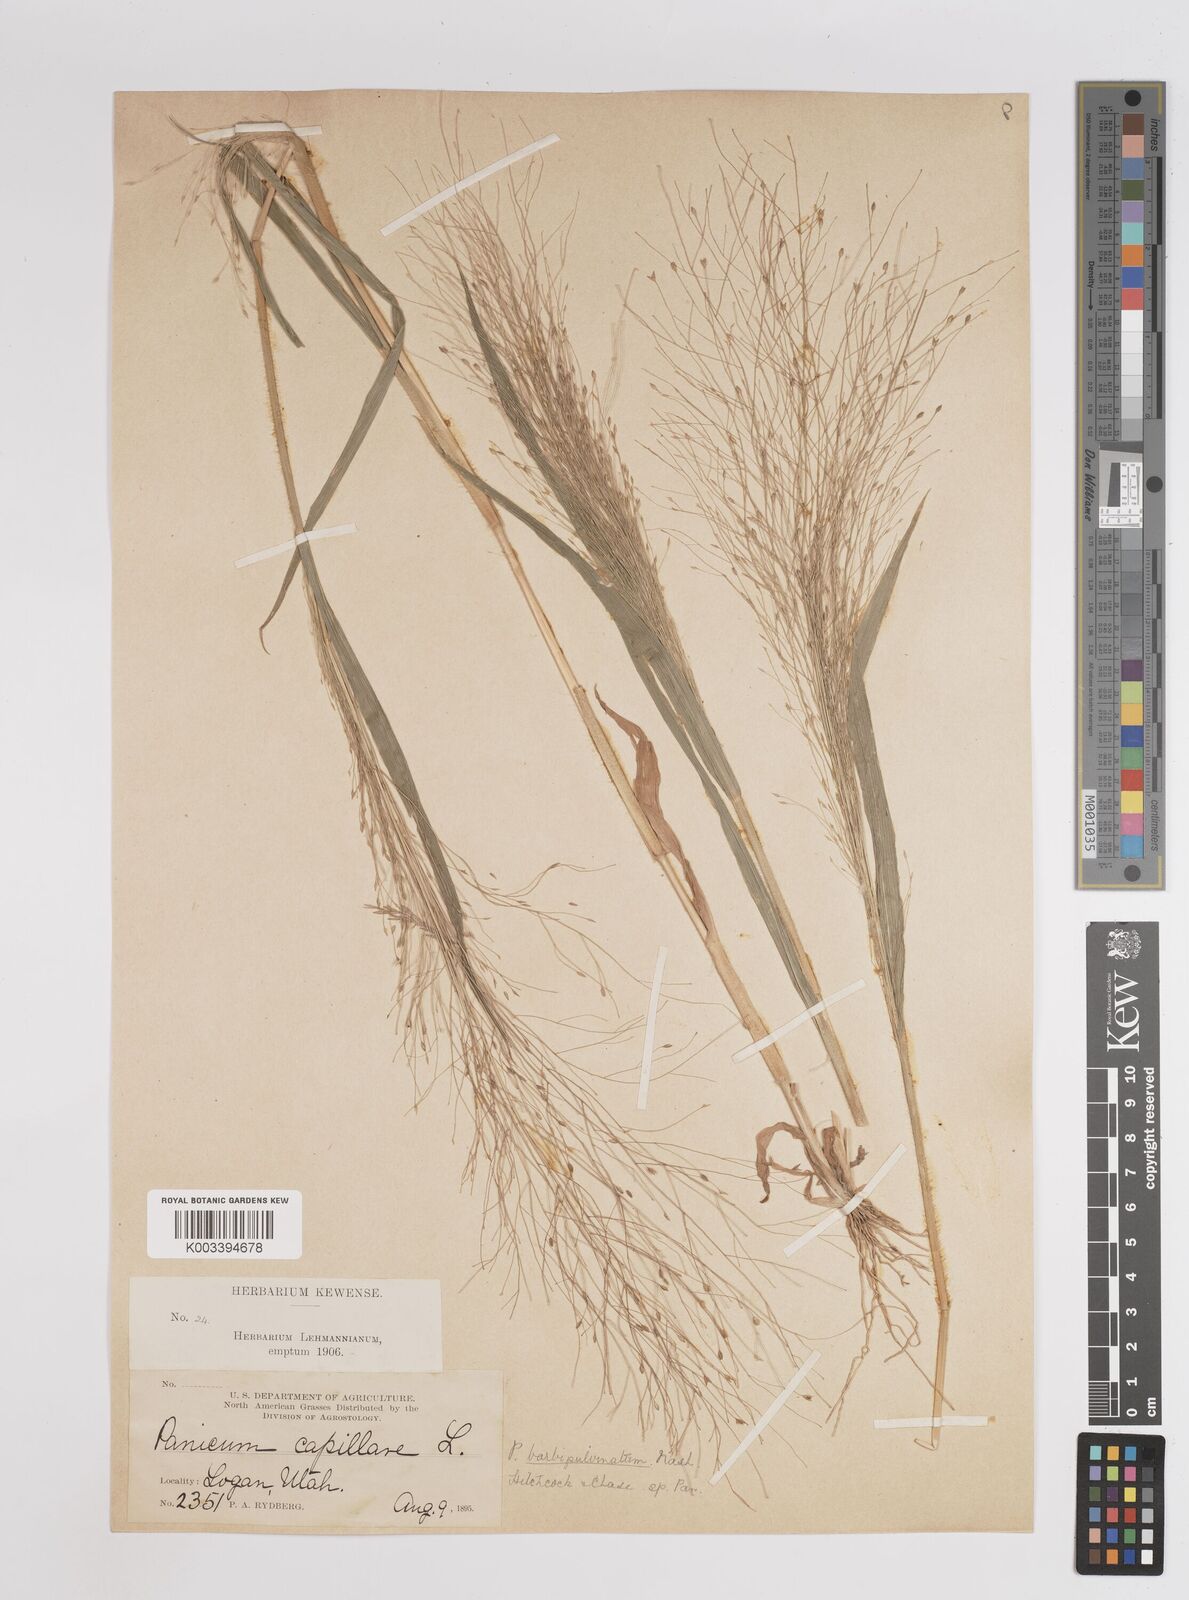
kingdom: Plantae
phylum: Tracheophyta
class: Liliopsida
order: Poales
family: Poaceae
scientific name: Poaceae
